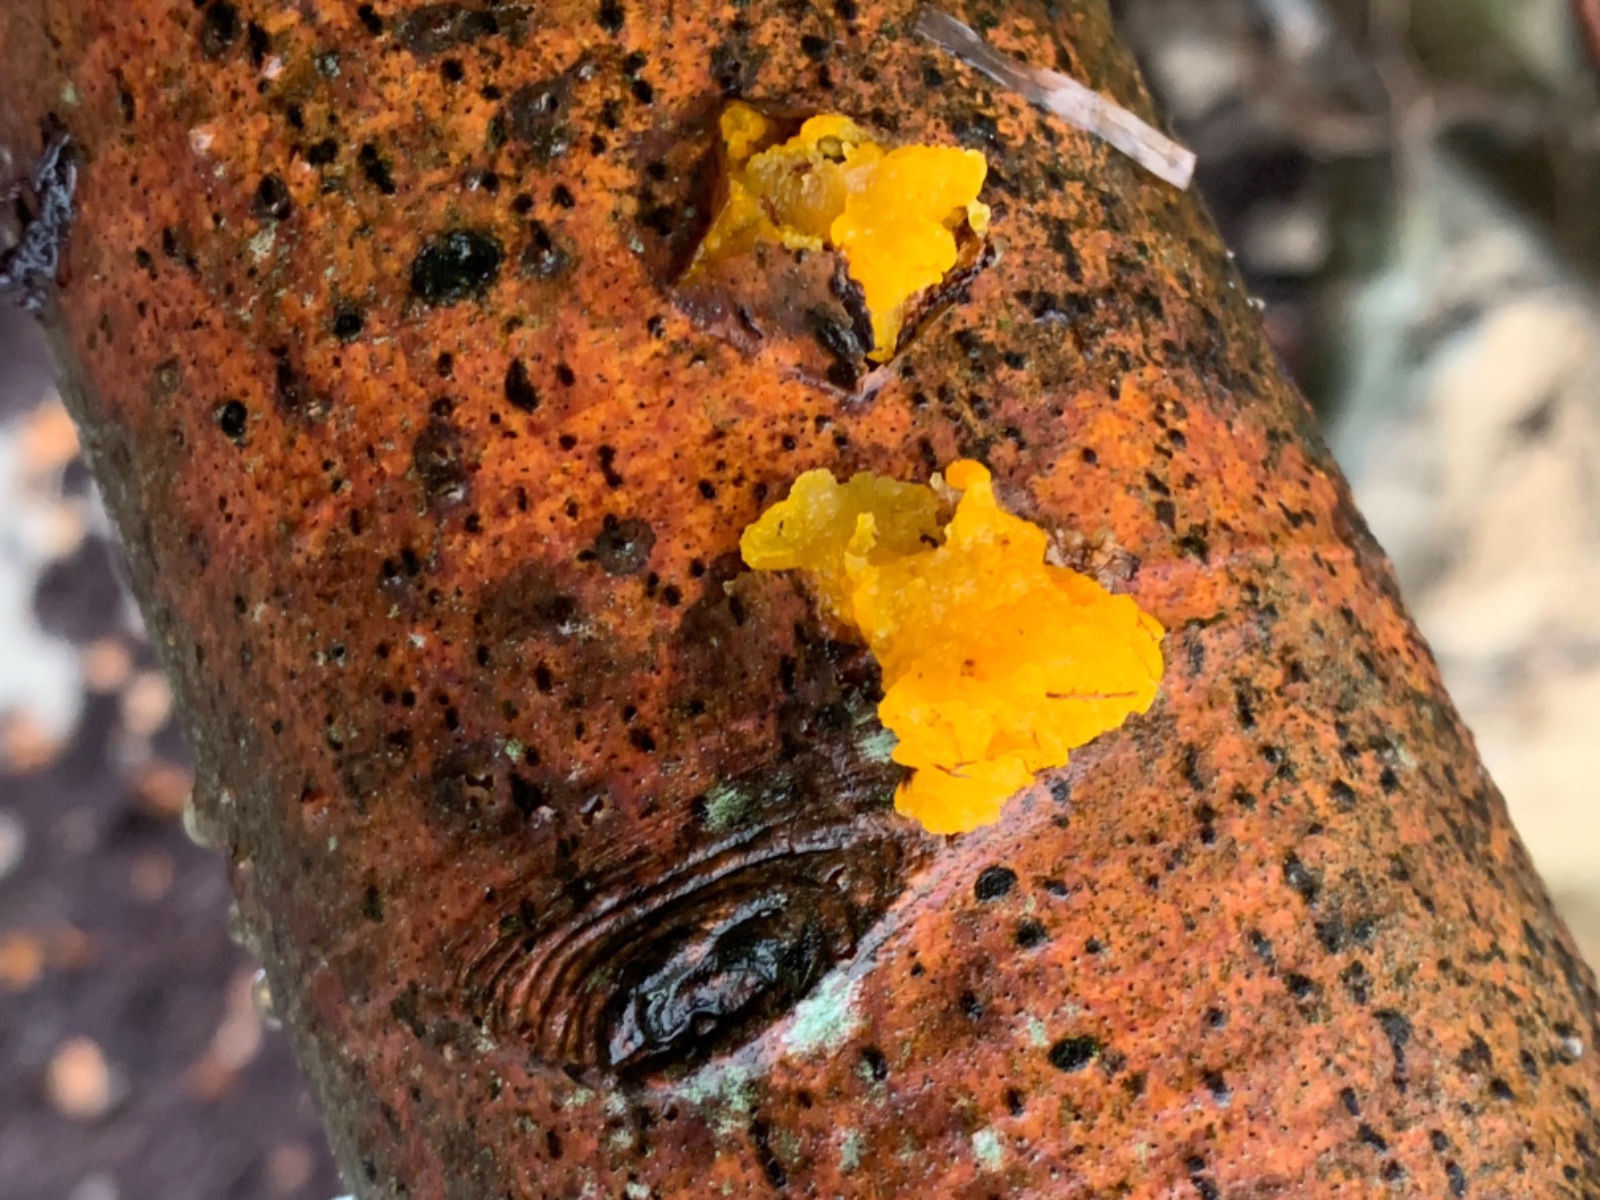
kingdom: Fungi
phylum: Basidiomycota
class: Tremellomycetes
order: Tremellales
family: Tremellaceae
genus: Tremella
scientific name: Tremella mesenterica
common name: gul bævresvamp
